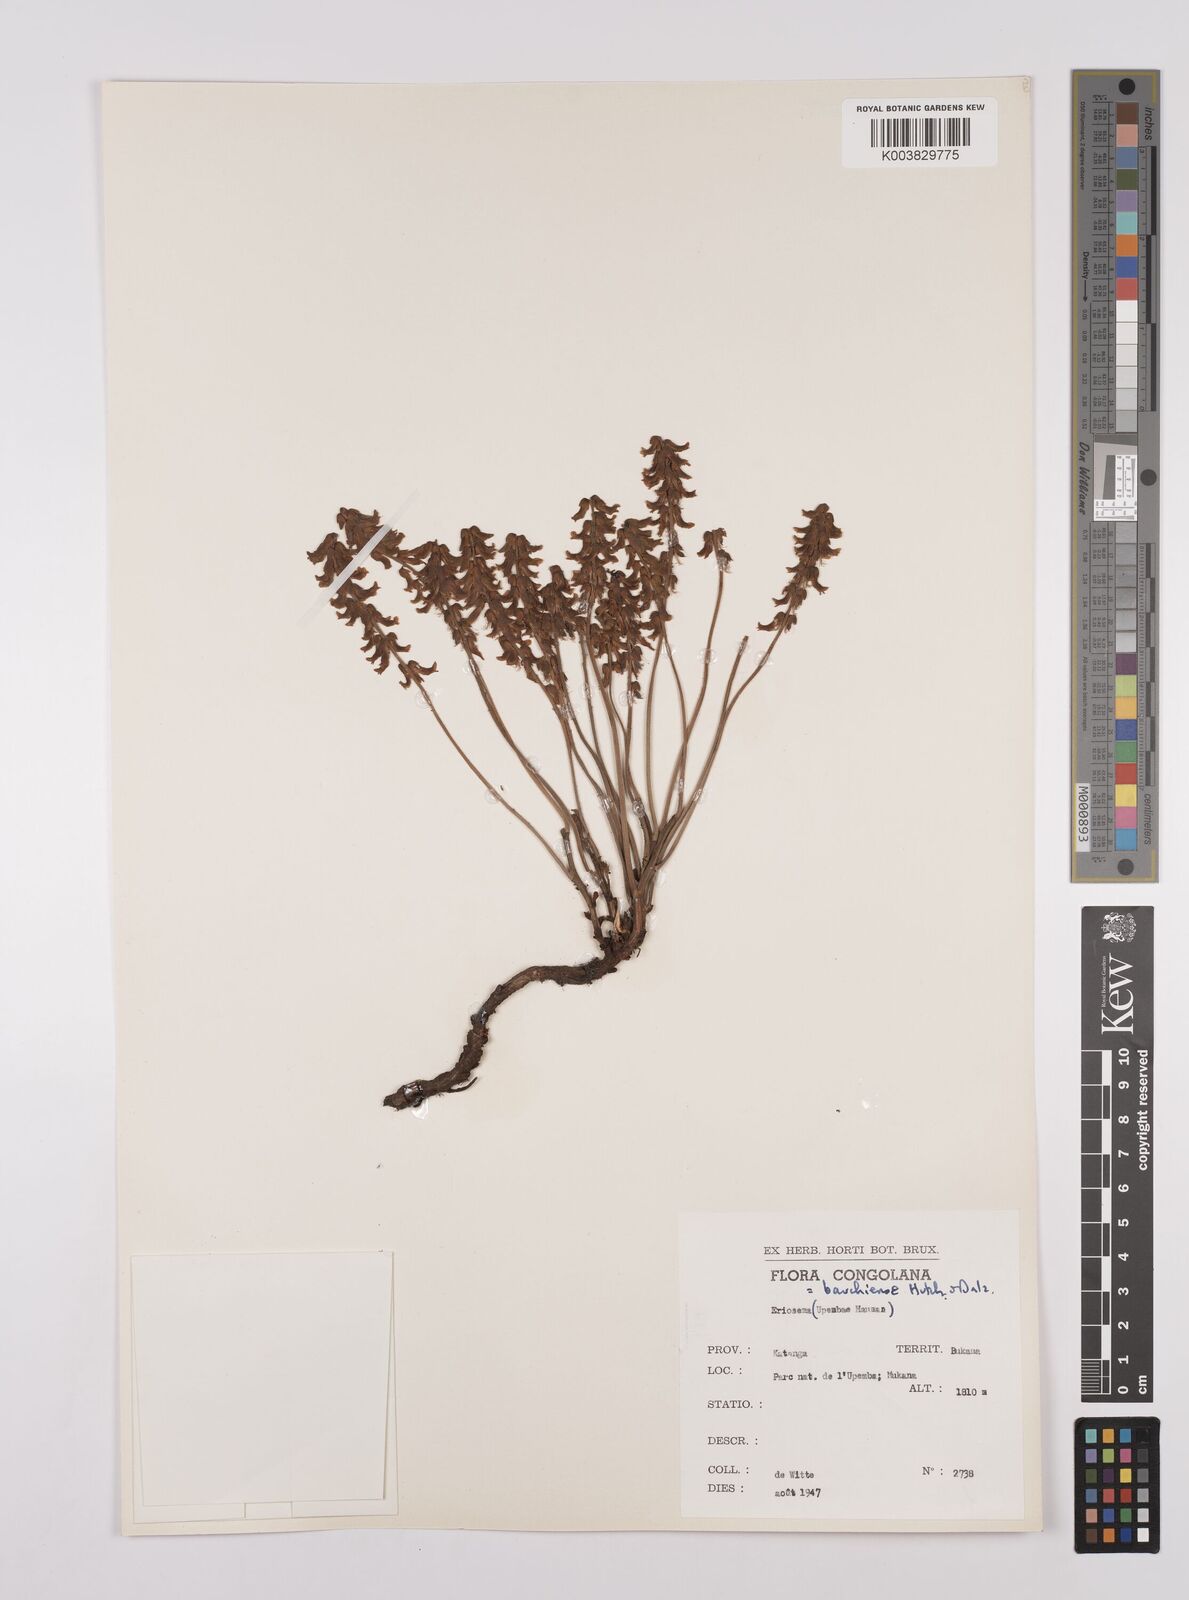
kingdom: Plantae
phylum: Tracheophyta
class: Magnoliopsida
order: Fabales
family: Fabaceae
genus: Eriosema
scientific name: Eriosema bauchiense
